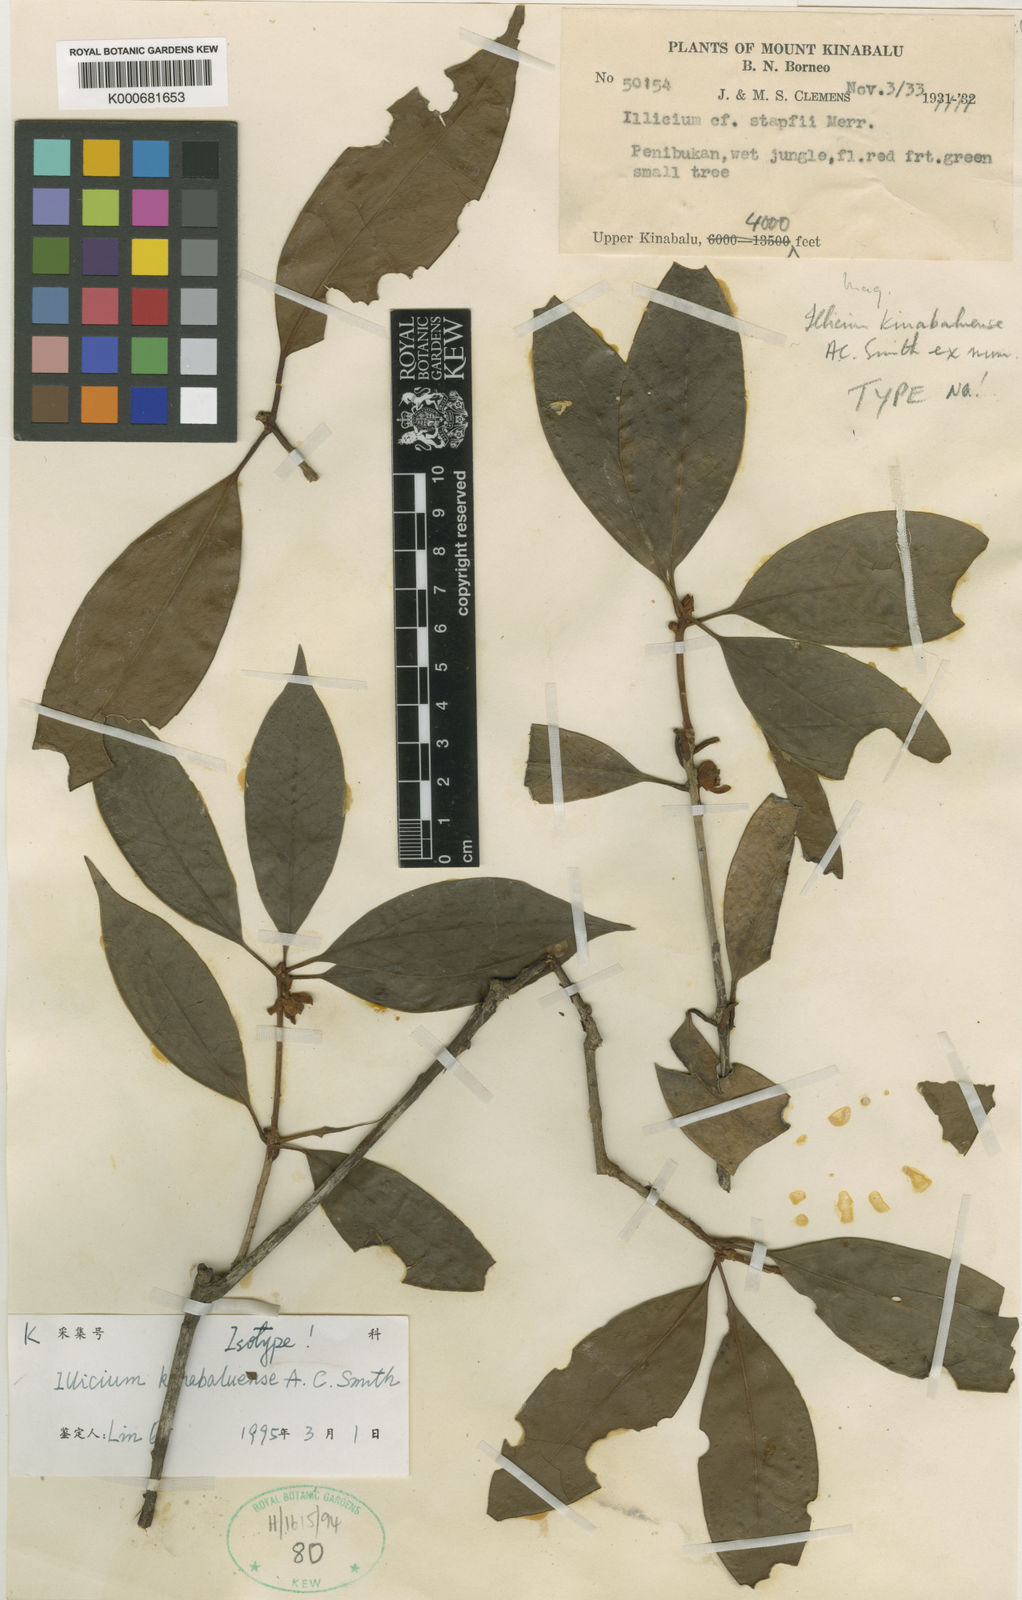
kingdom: Plantae
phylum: Tracheophyta
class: Magnoliopsida
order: Austrobaileyales
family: Schisandraceae
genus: Illicium
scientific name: Illicium stapfii
